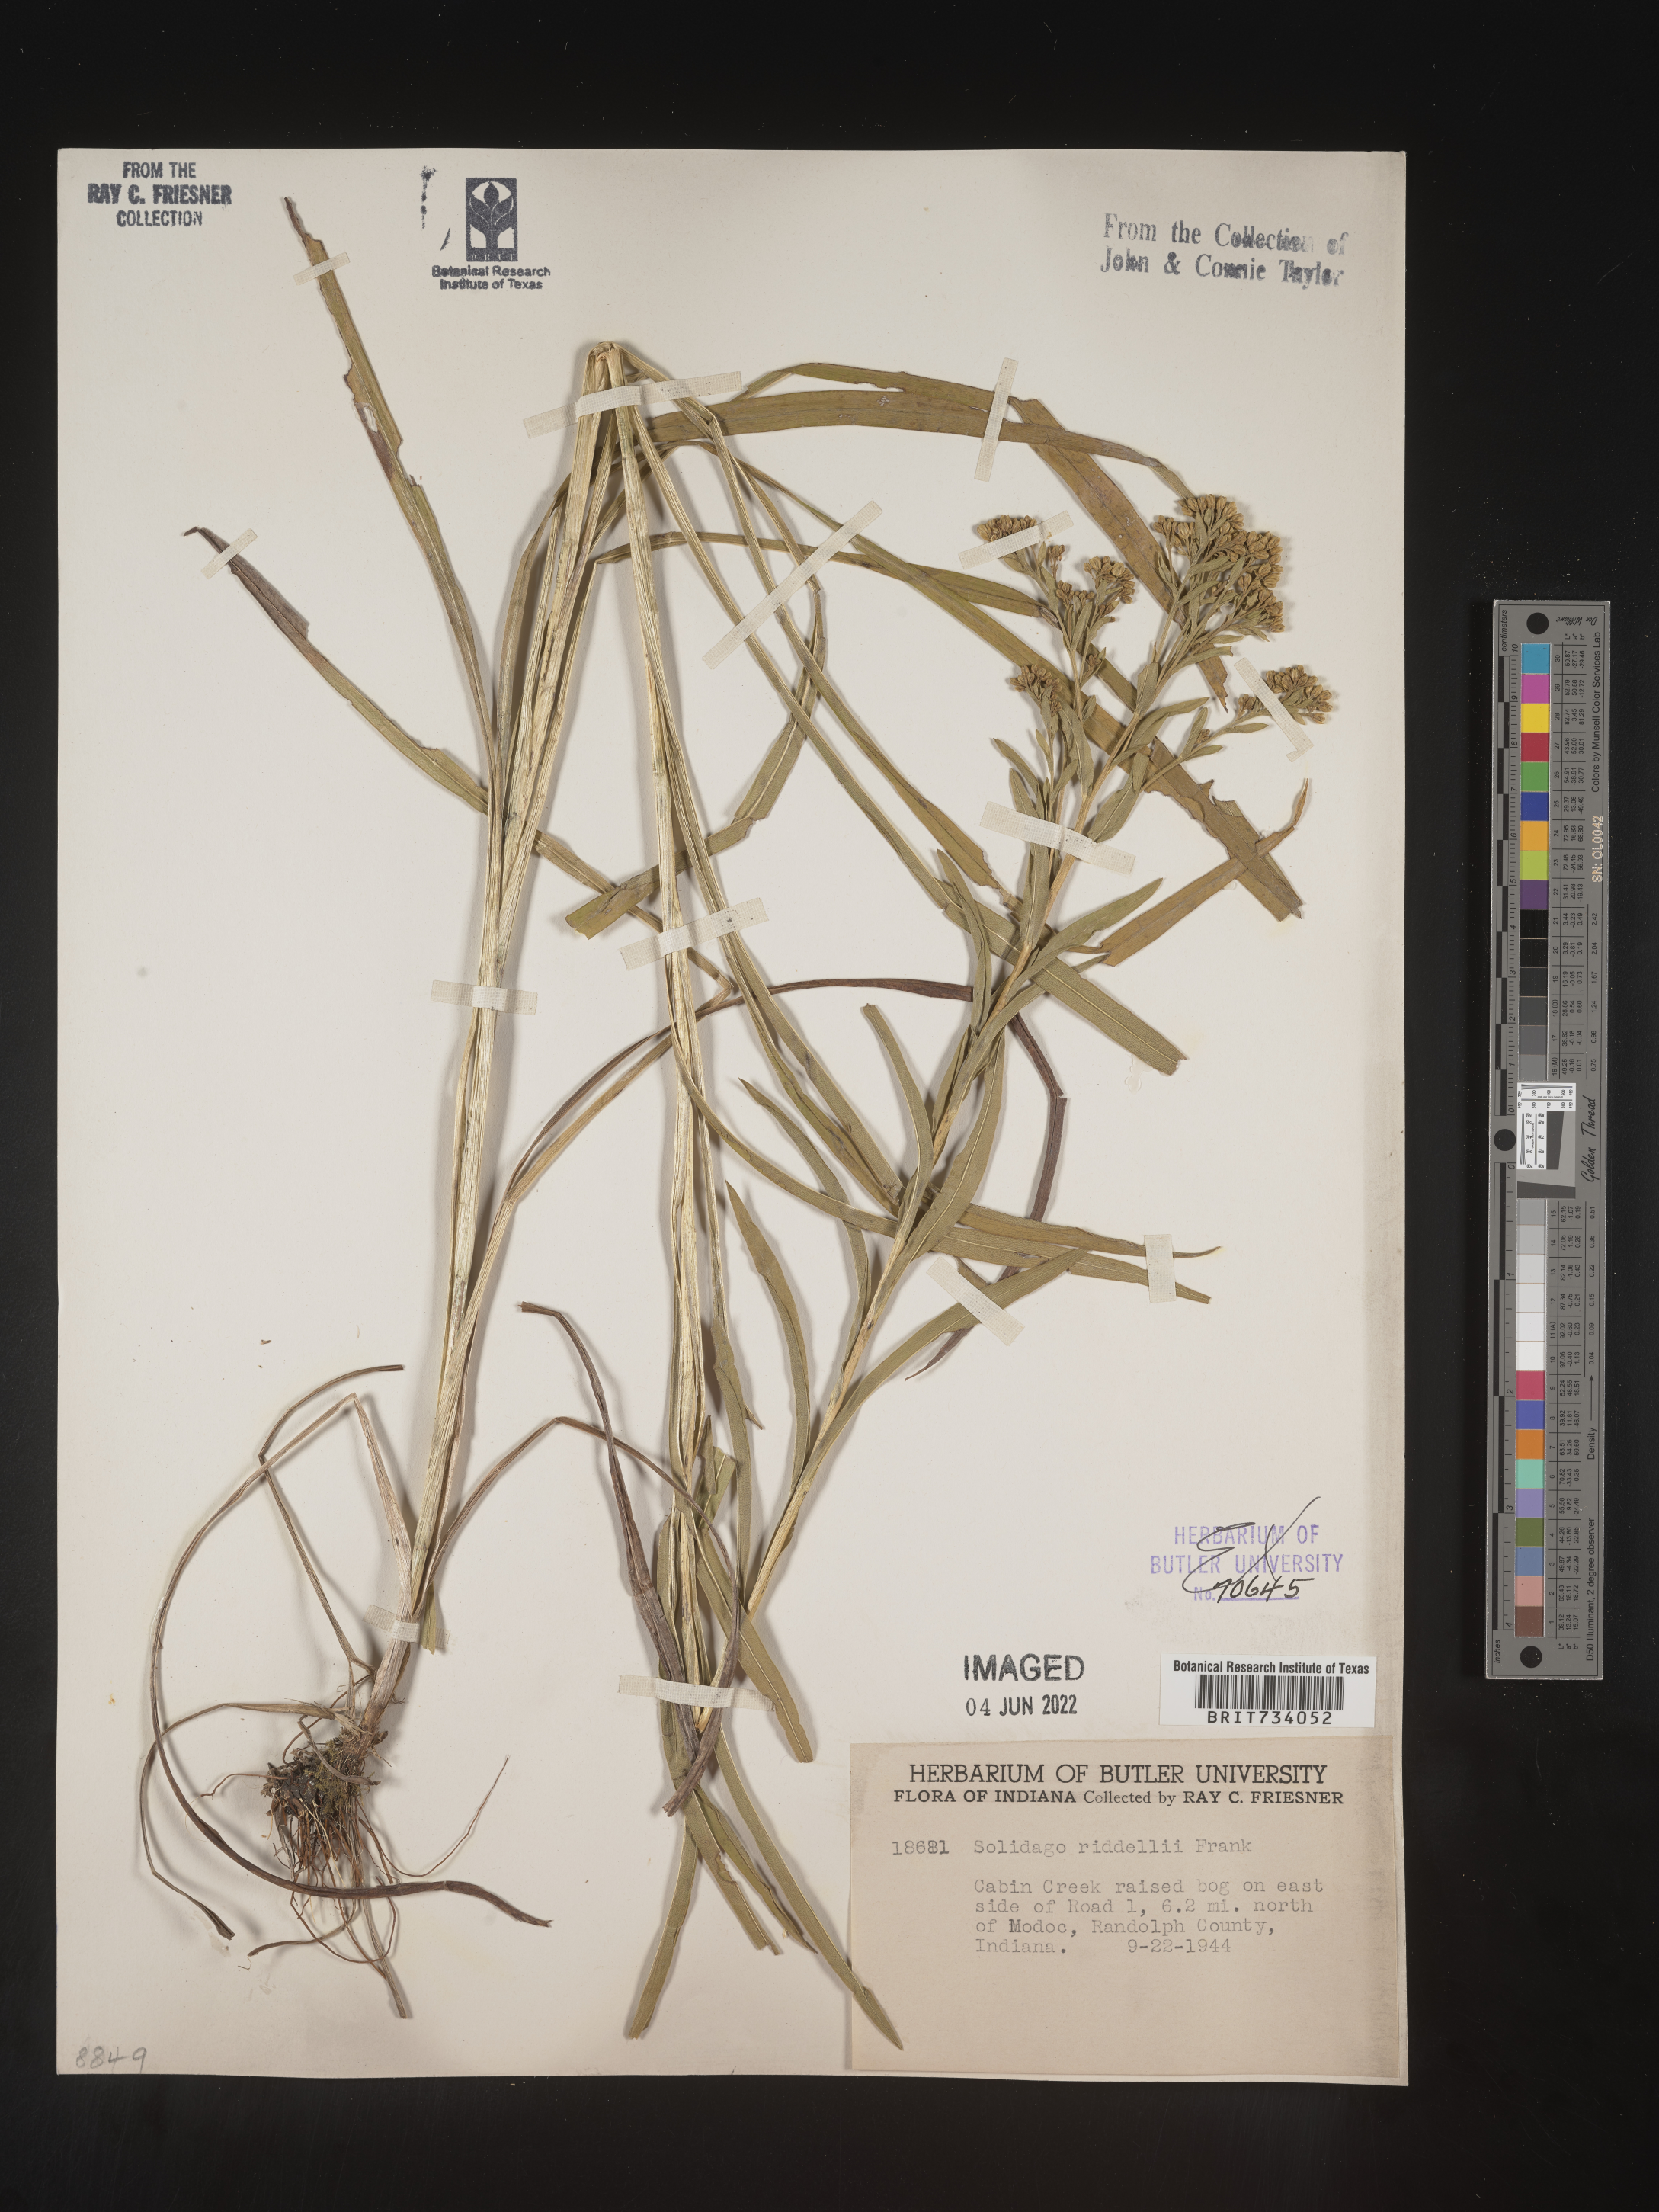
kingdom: Plantae
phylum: Tracheophyta
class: Magnoliopsida
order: Asterales
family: Asteraceae
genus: Solidago
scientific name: Solidago riddellii
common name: Riddell's goldenrod
